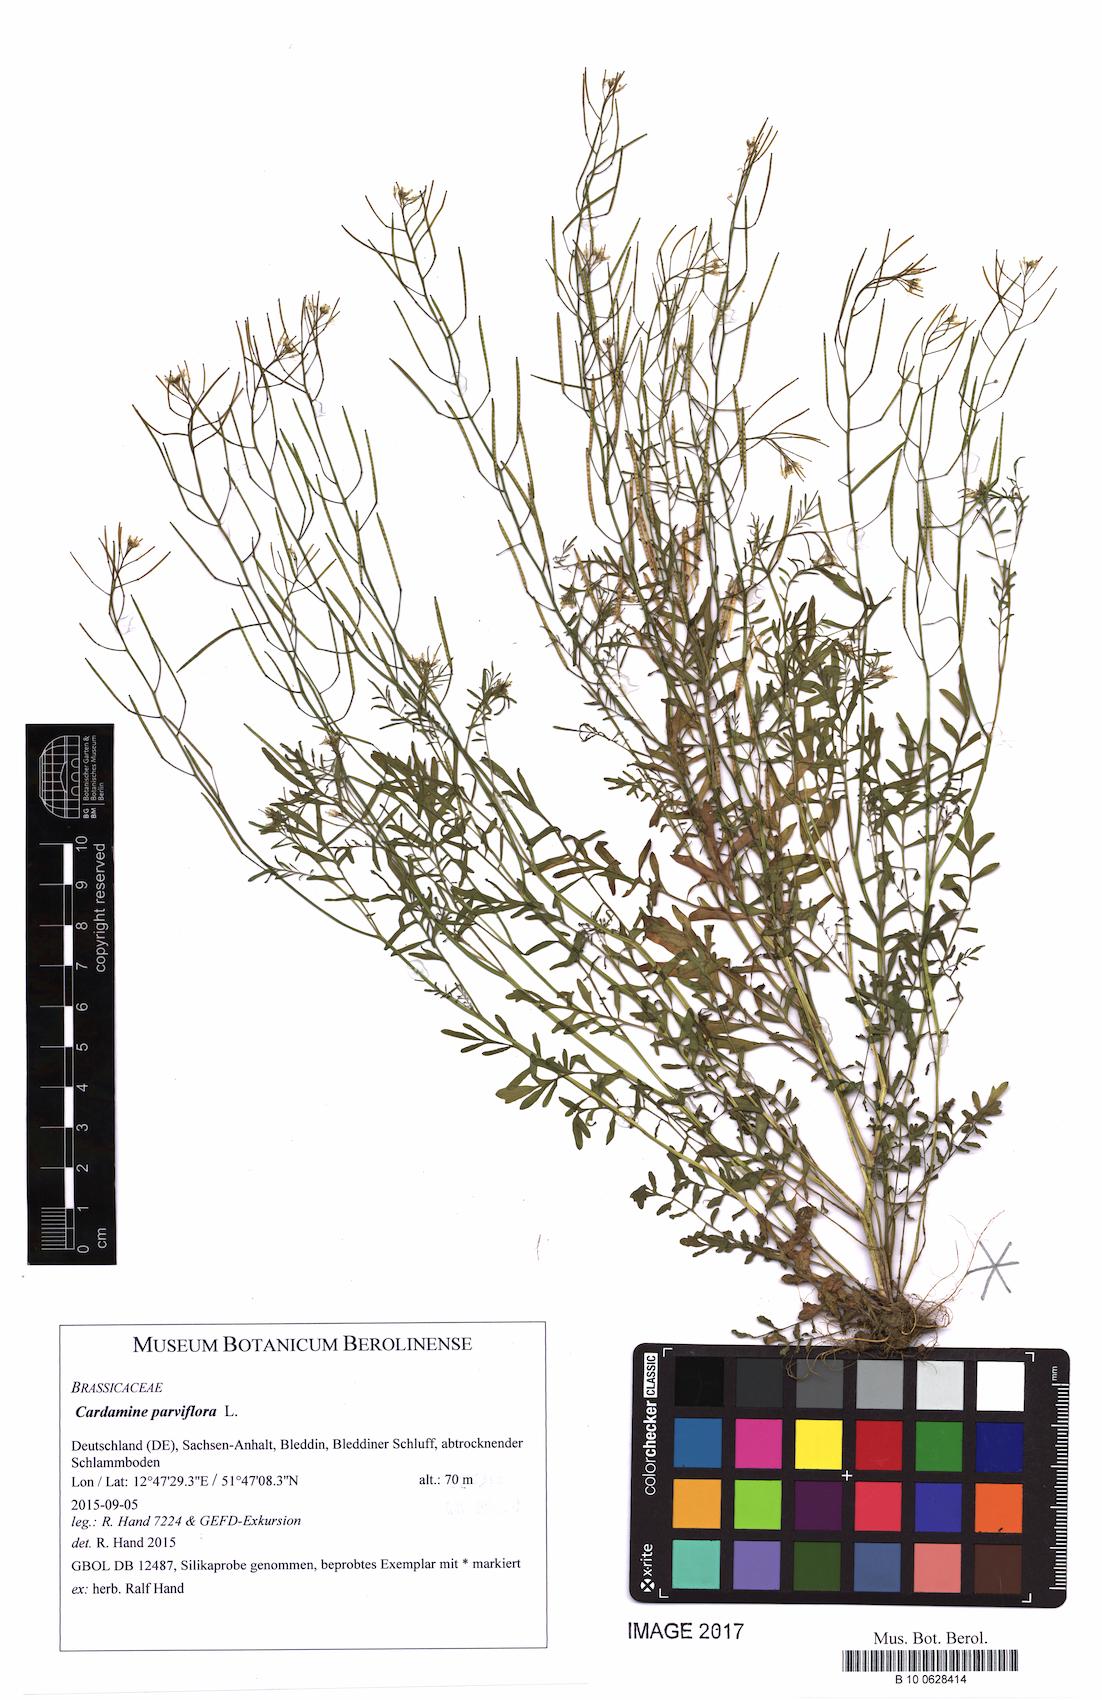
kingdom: Plantae
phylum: Tracheophyta
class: Magnoliopsida
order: Brassicales
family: Brassicaceae
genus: Cardamine
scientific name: Cardamine parviflora
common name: Sand bittercress
